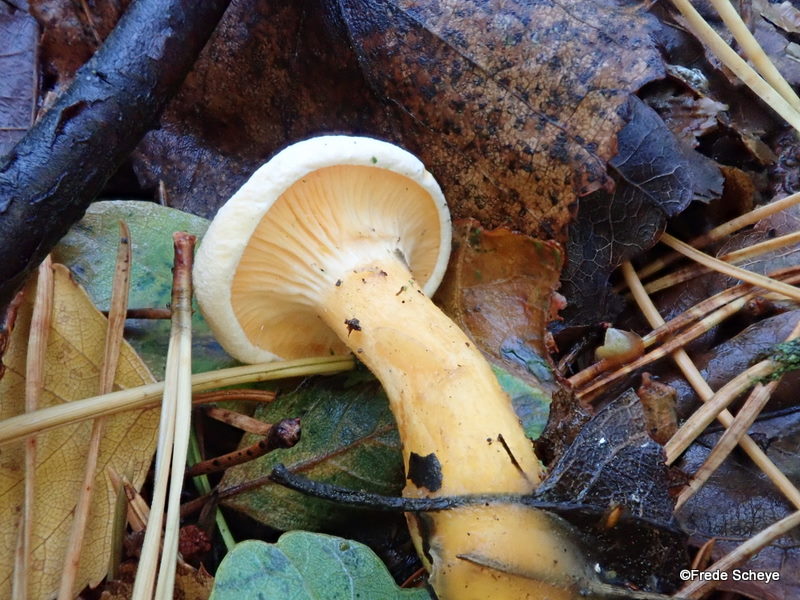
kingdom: Fungi
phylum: Basidiomycota
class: Agaricomycetes
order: Boletales
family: Hygrophoropsidaceae
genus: Hygrophoropsis
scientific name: Hygrophoropsis aurantiaca
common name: almindelig orangekantarel
